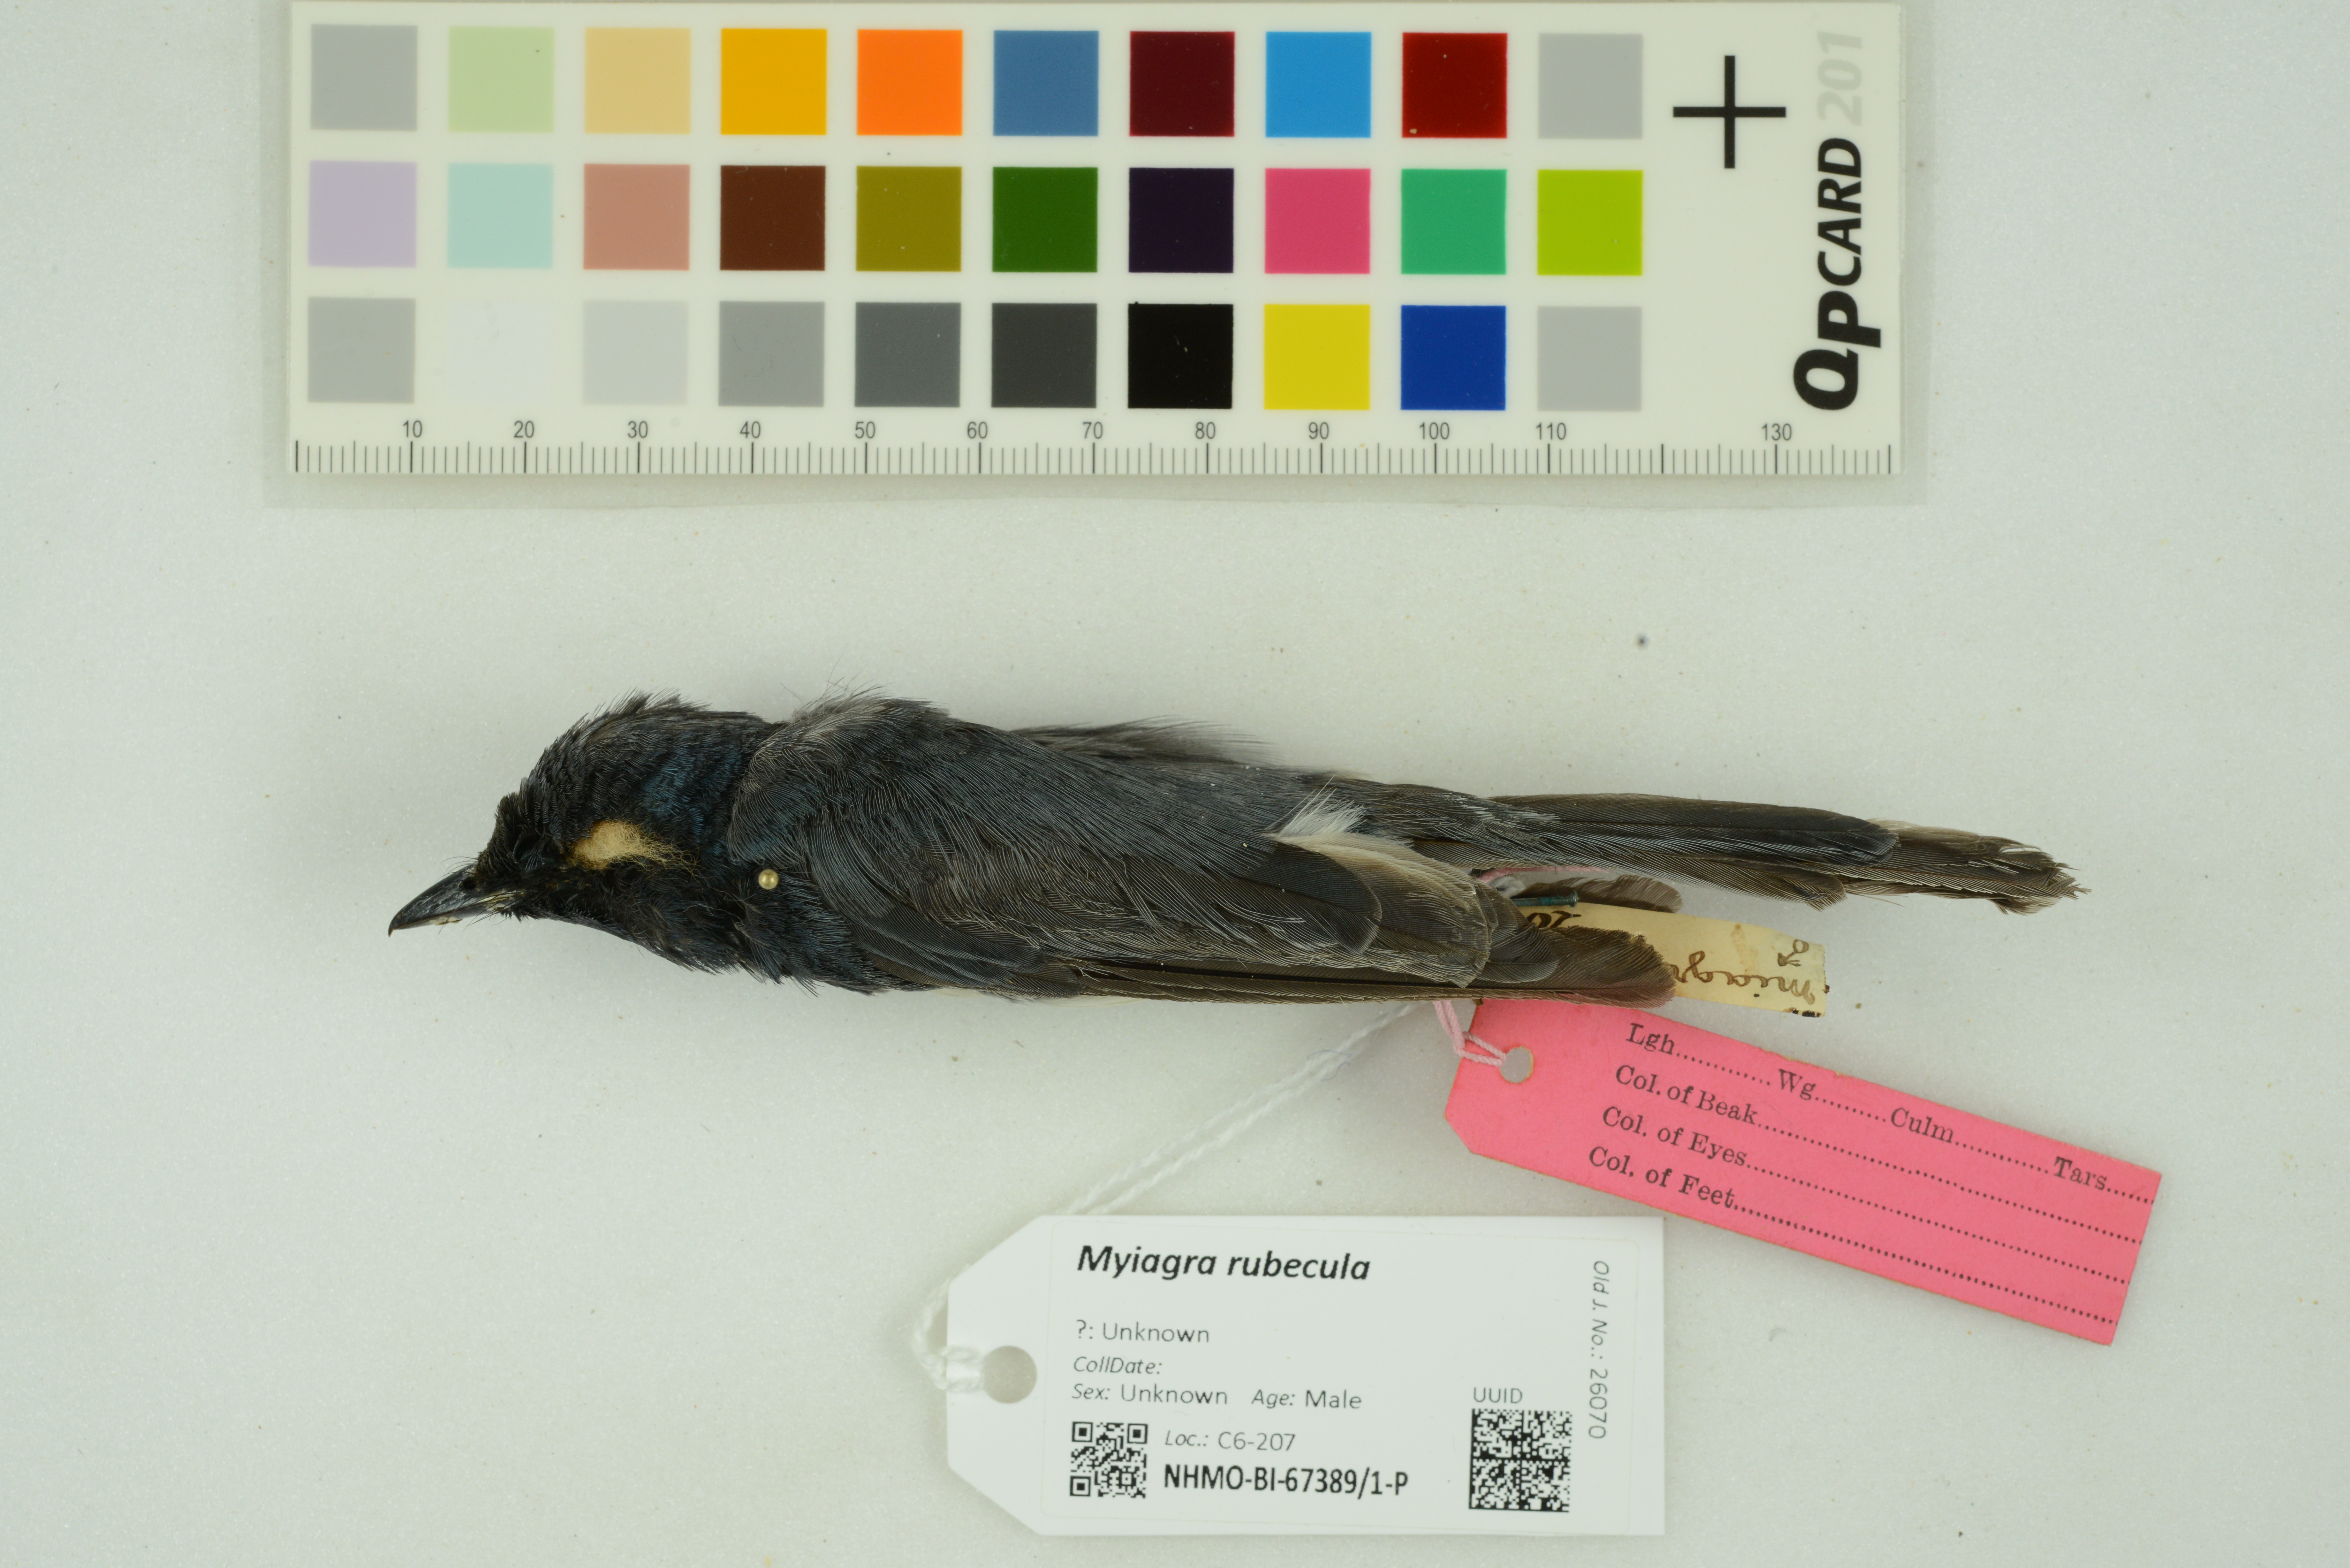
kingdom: Animalia
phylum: Chordata
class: Aves
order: Passeriformes
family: Monarchidae
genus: Myiagra
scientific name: Myiagra rubecula
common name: Leaden flycatcher
